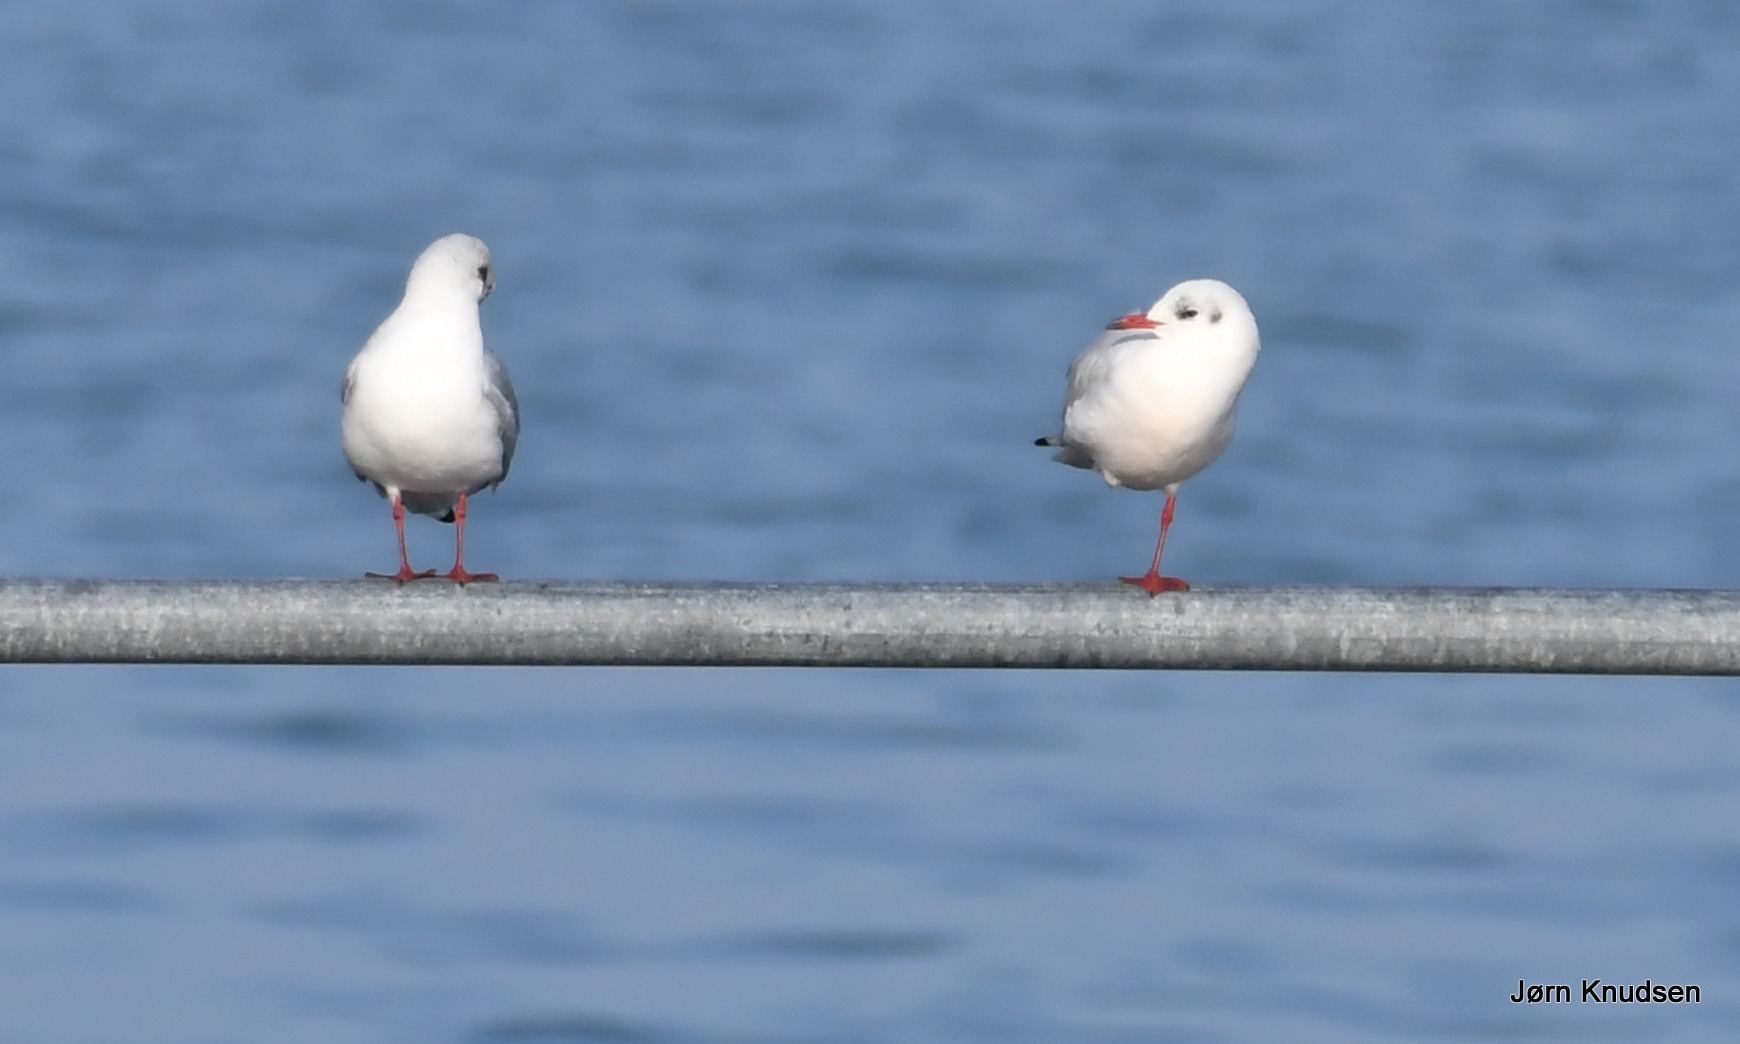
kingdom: Animalia
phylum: Chordata
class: Aves
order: Charadriiformes
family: Laridae
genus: Chroicocephalus
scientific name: Chroicocephalus ridibundus
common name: Hættemåge
